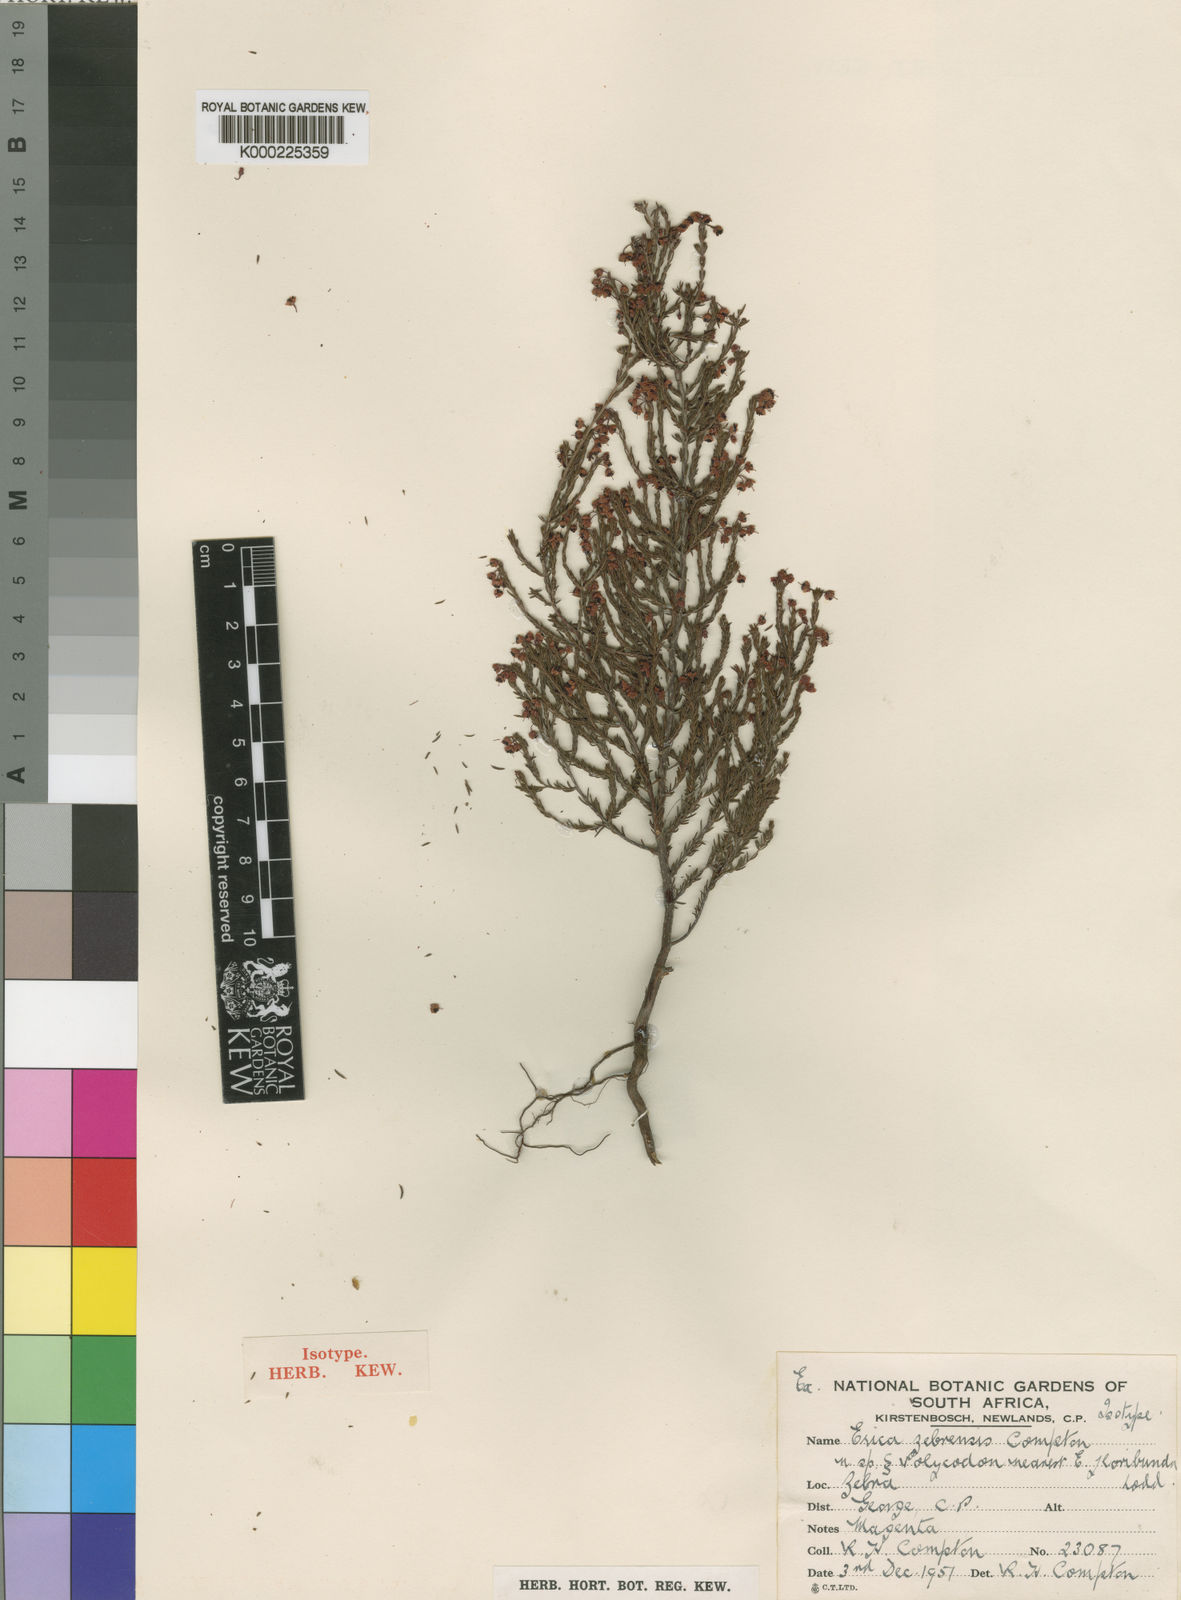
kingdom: Plantae
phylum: Tracheophyta
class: Magnoliopsida
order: Ericales
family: Ericaceae
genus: Erica
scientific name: Erica zebrensis
